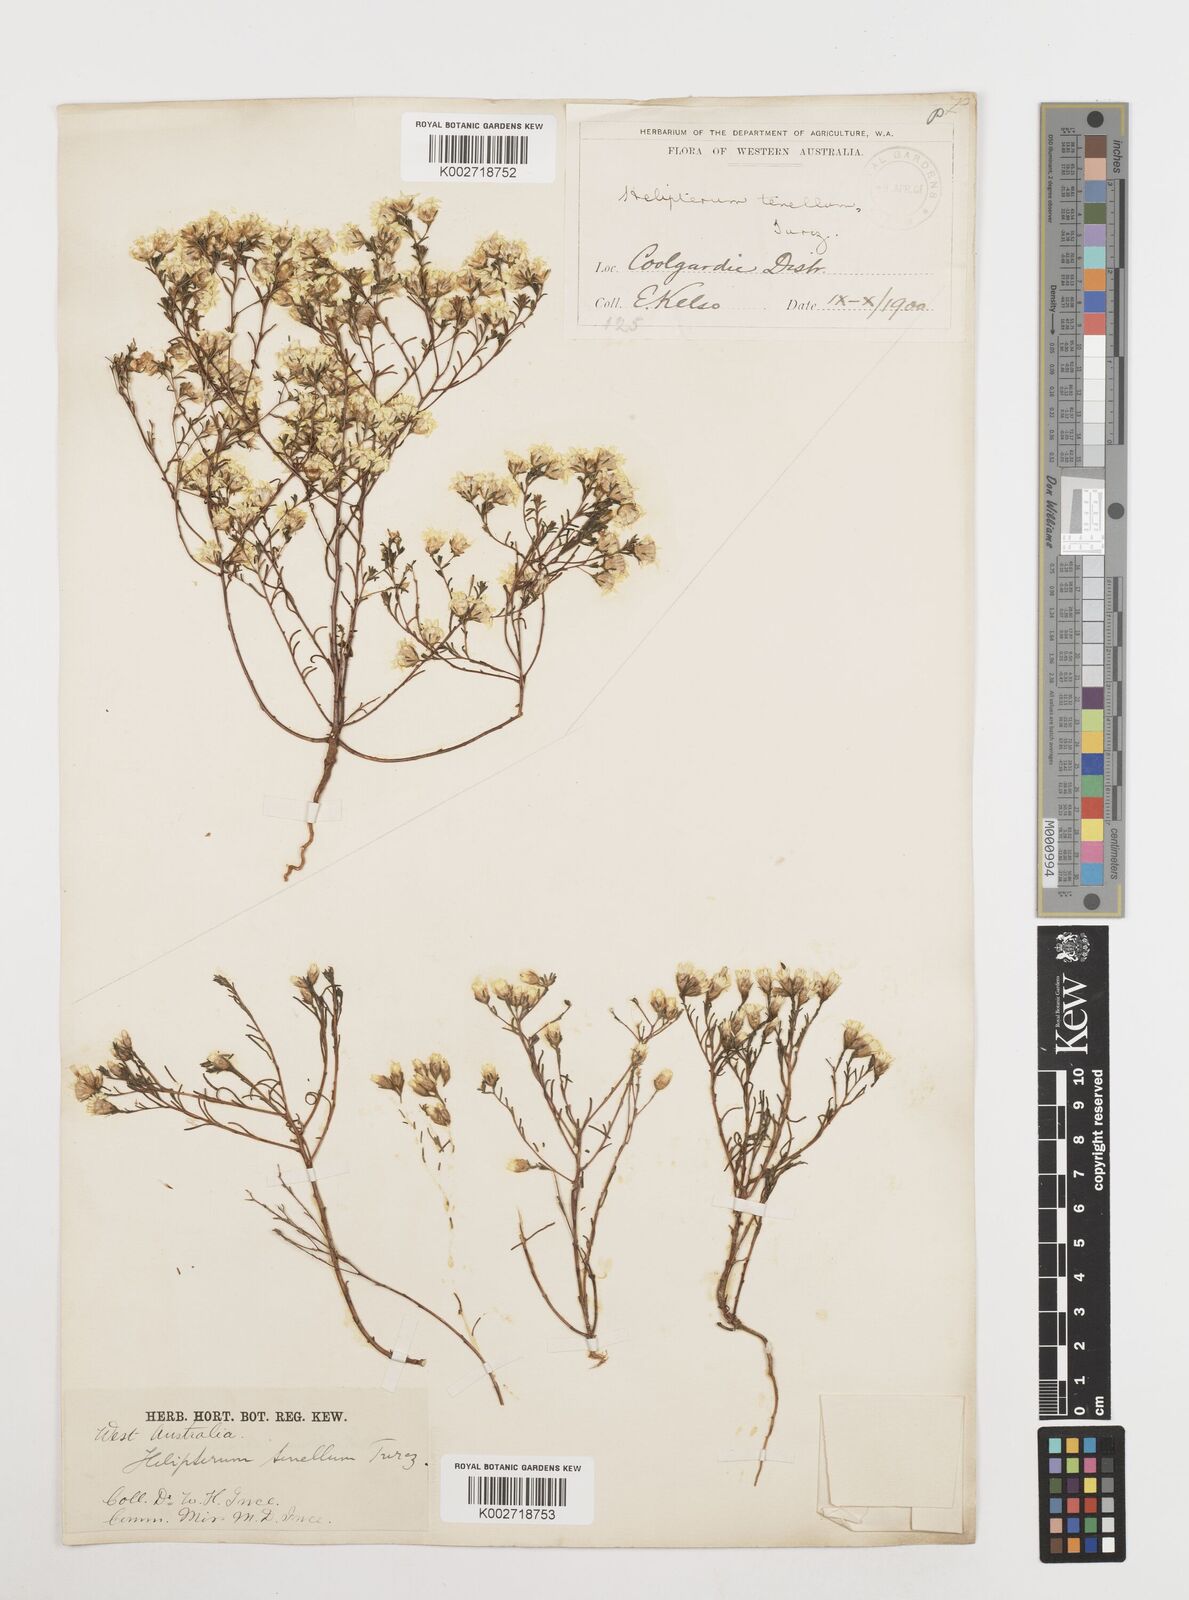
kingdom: Plantae
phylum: Tracheophyta
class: Magnoliopsida
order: Asterales
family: Asteraceae
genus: Erymophyllum
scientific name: Erymophyllum tenellum
